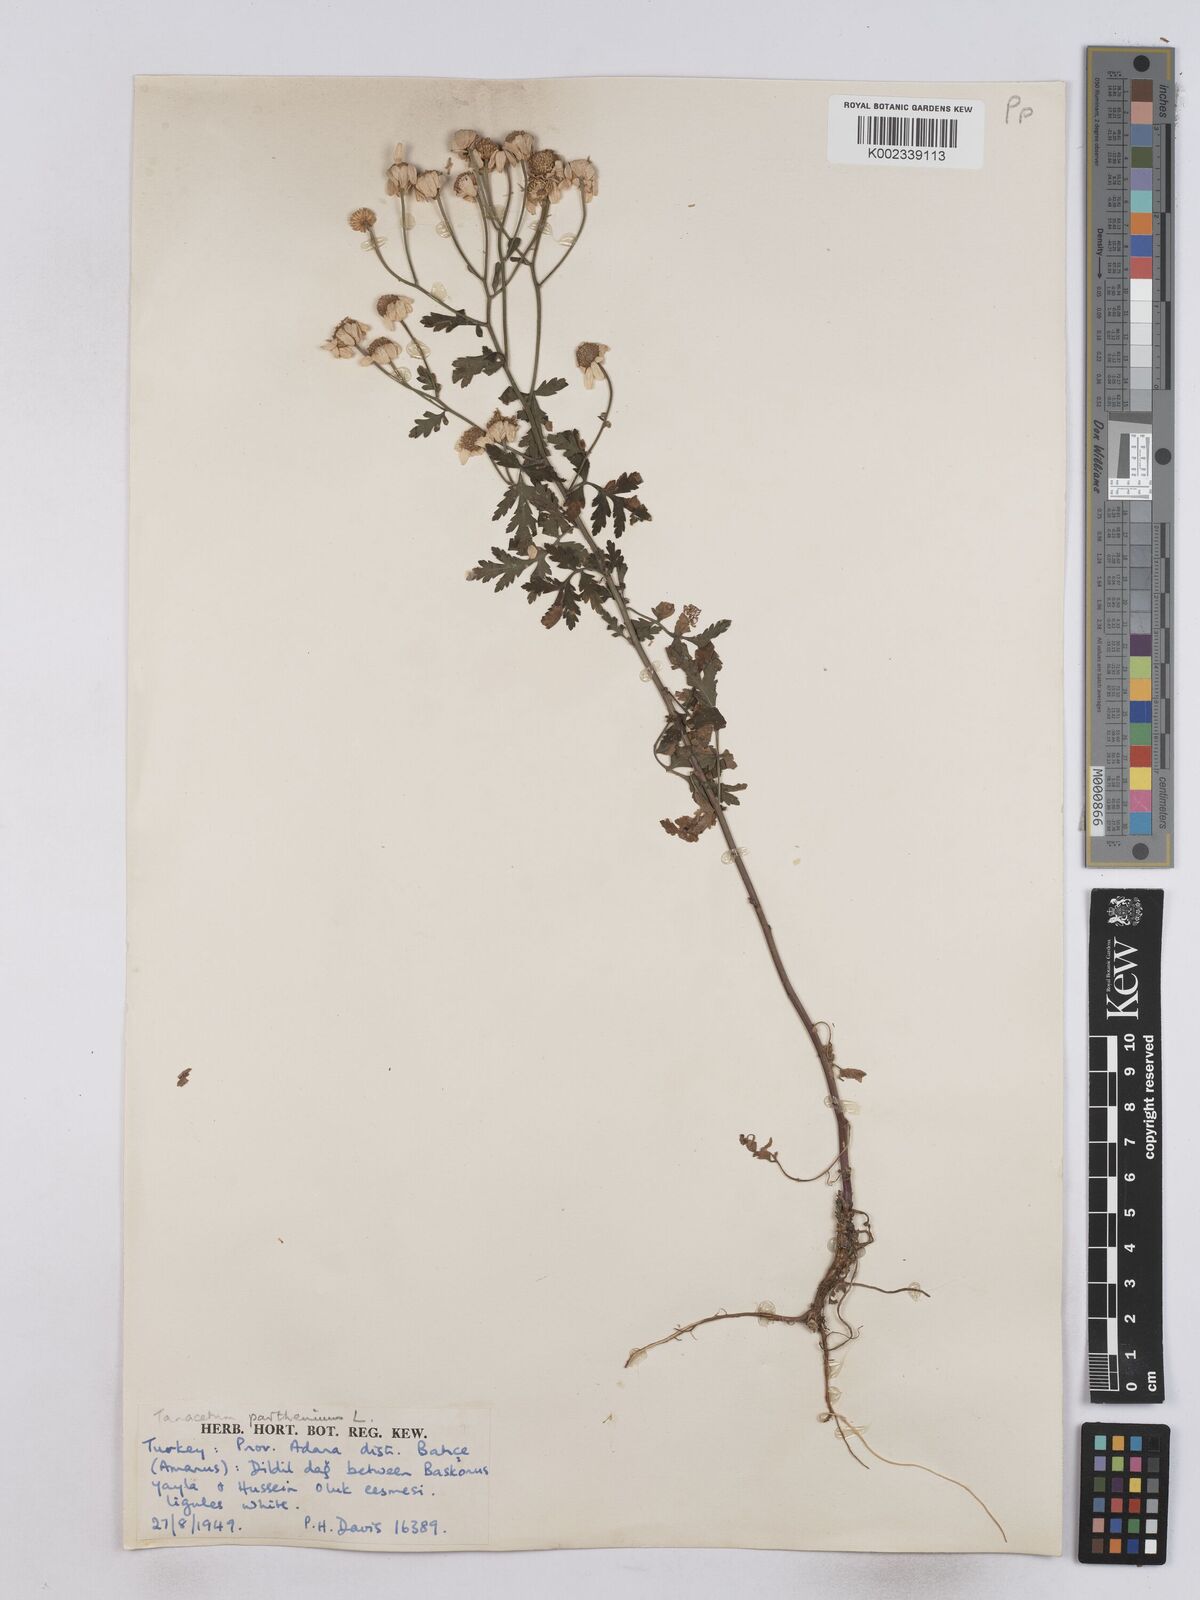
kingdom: Plantae
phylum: Tracheophyta
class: Magnoliopsida
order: Asterales
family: Asteraceae
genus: Tanacetum
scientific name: Tanacetum parthenium
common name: Feverfew
